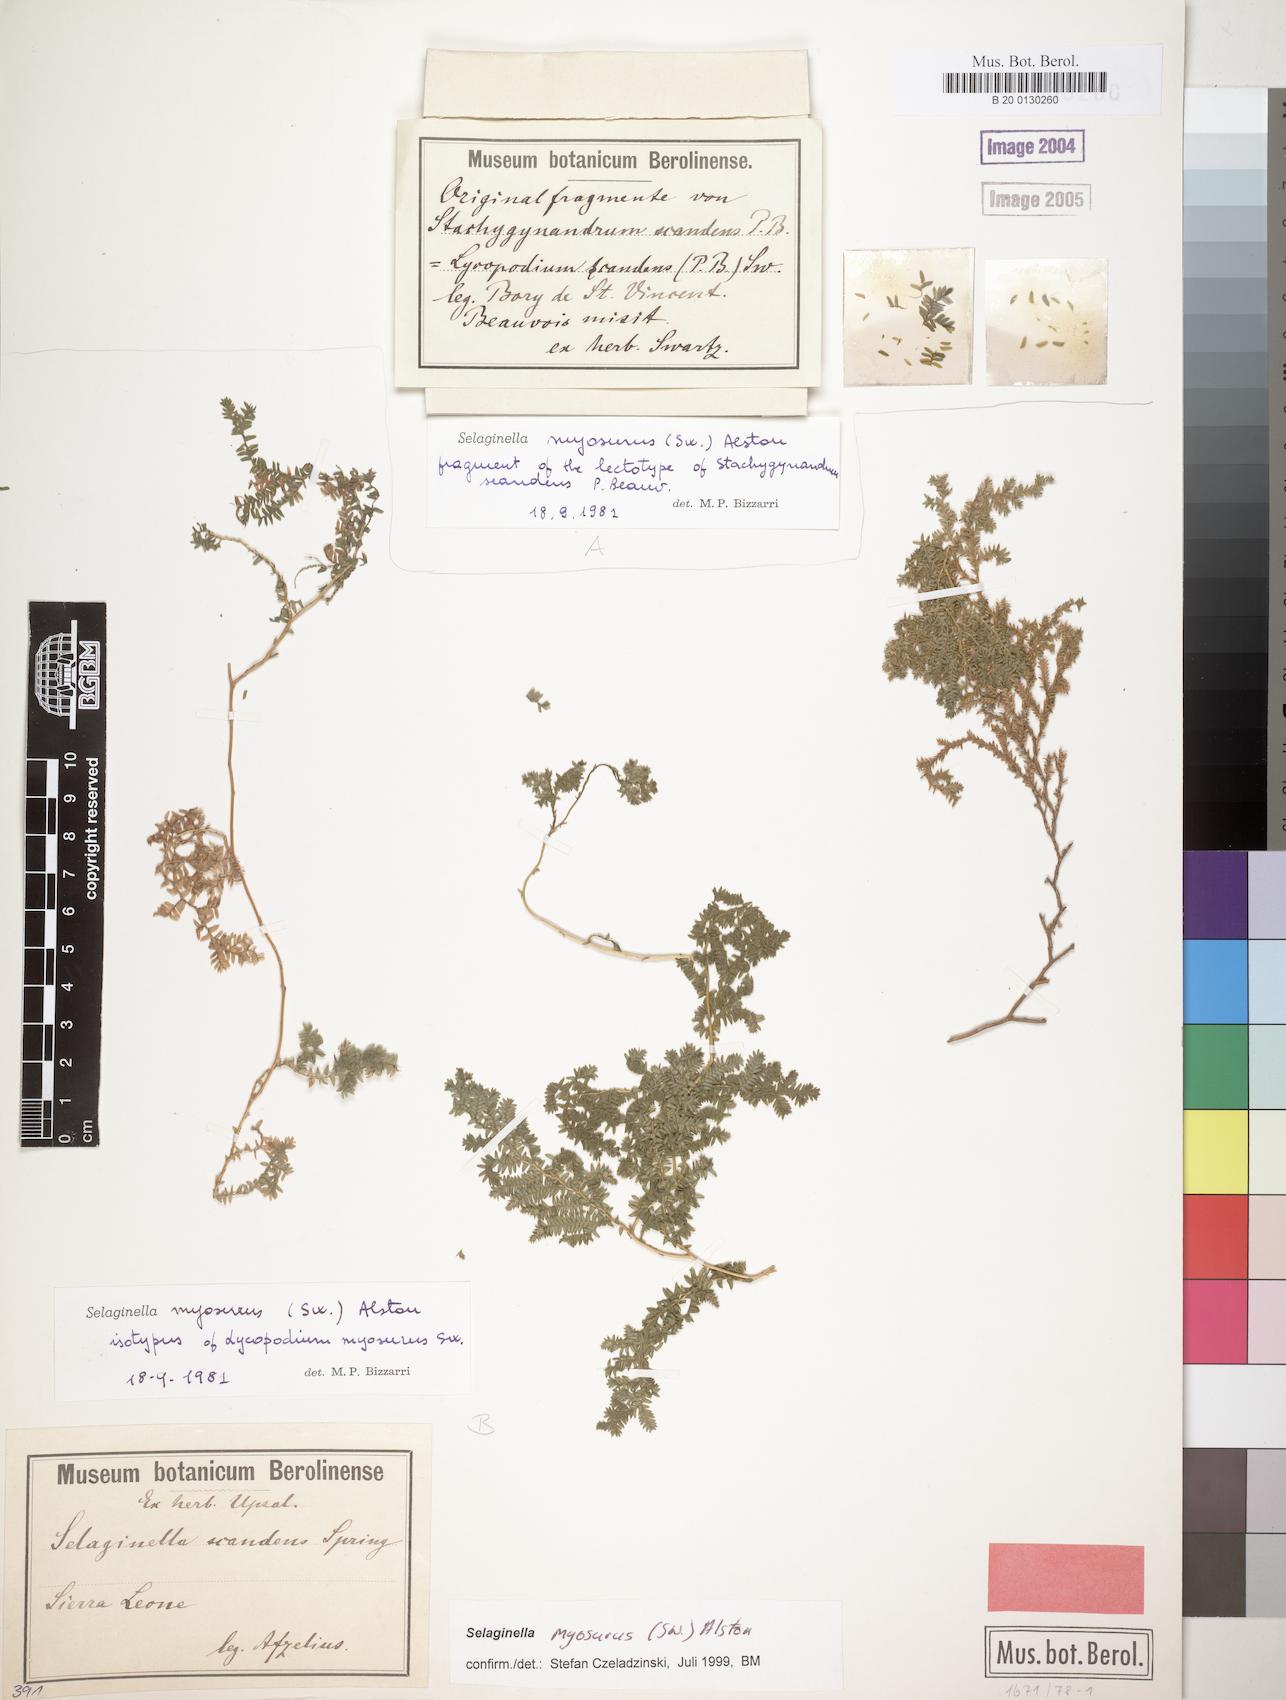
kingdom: Plantae
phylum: Tracheophyta
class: Lycopodiopsida
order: Selaginellales
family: Selaginellaceae
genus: Selaginella
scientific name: Selaginella myosurus
